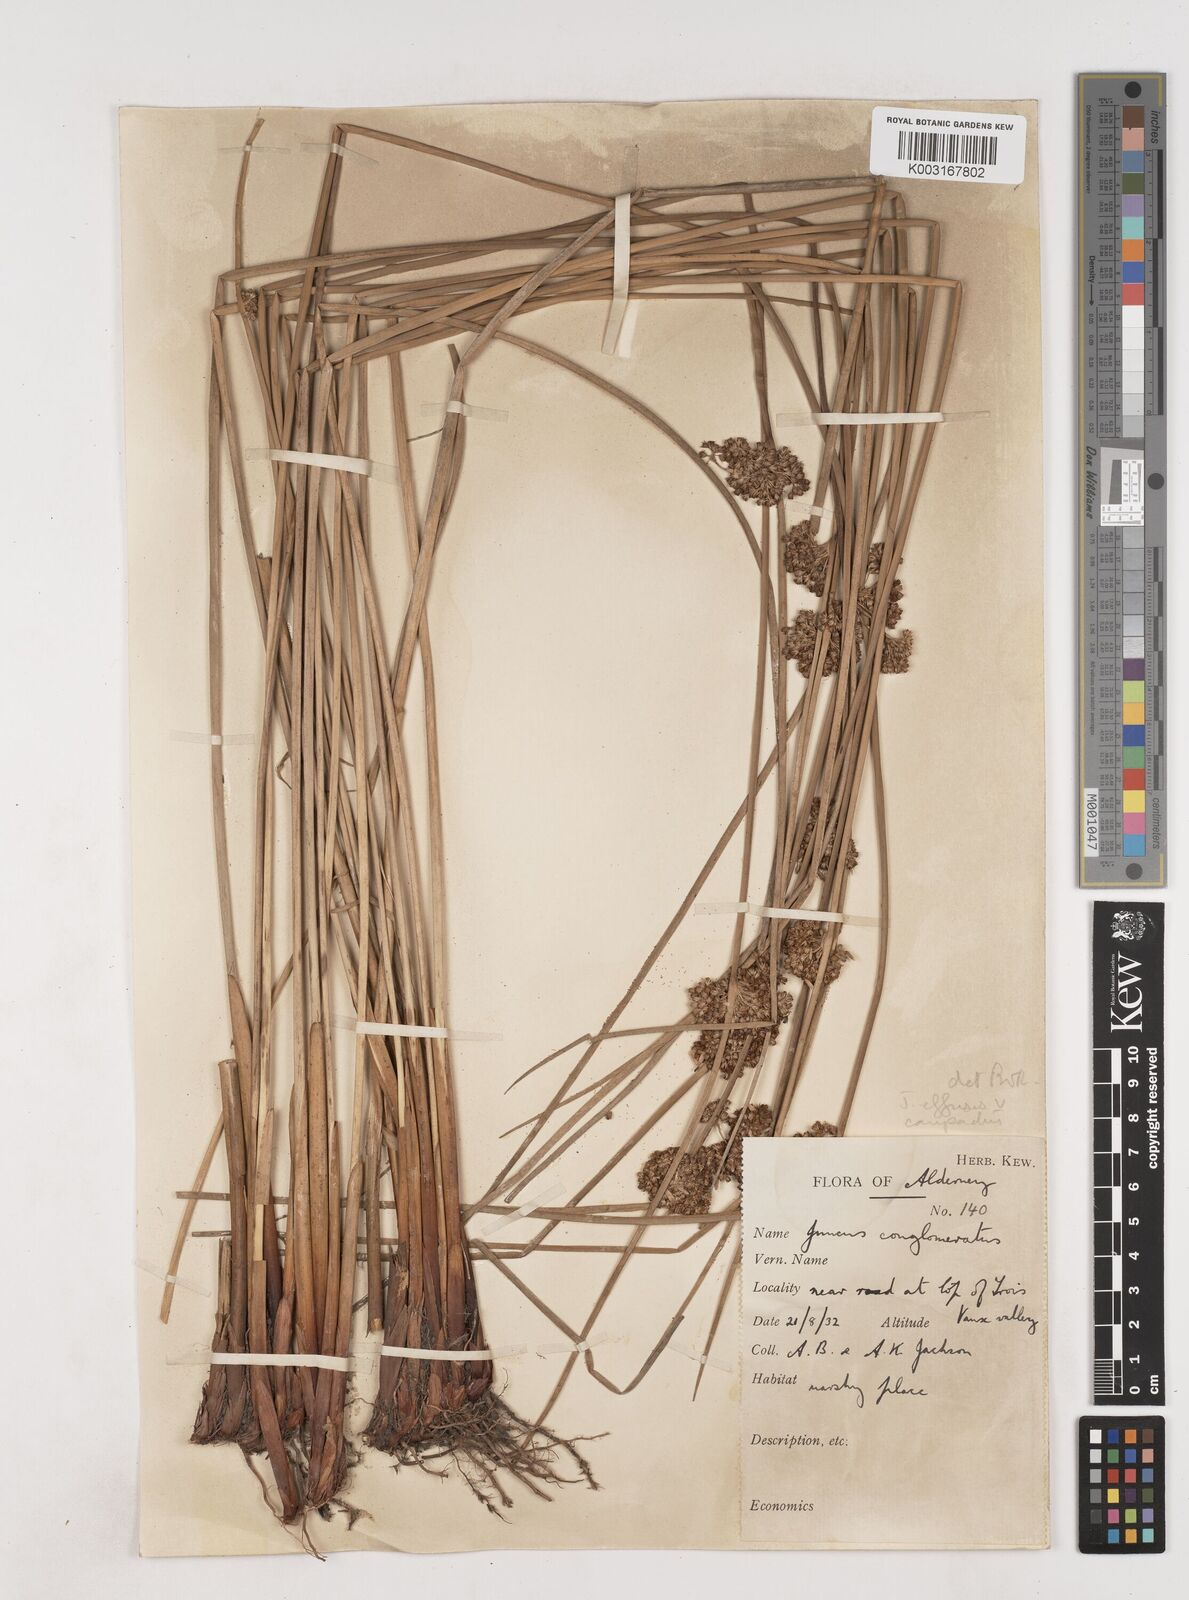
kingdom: Plantae
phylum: Tracheophyta
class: Liliopsida
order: Poales
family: Juncaceae
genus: Juncus
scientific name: Juncus effusus
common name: Soft rush
